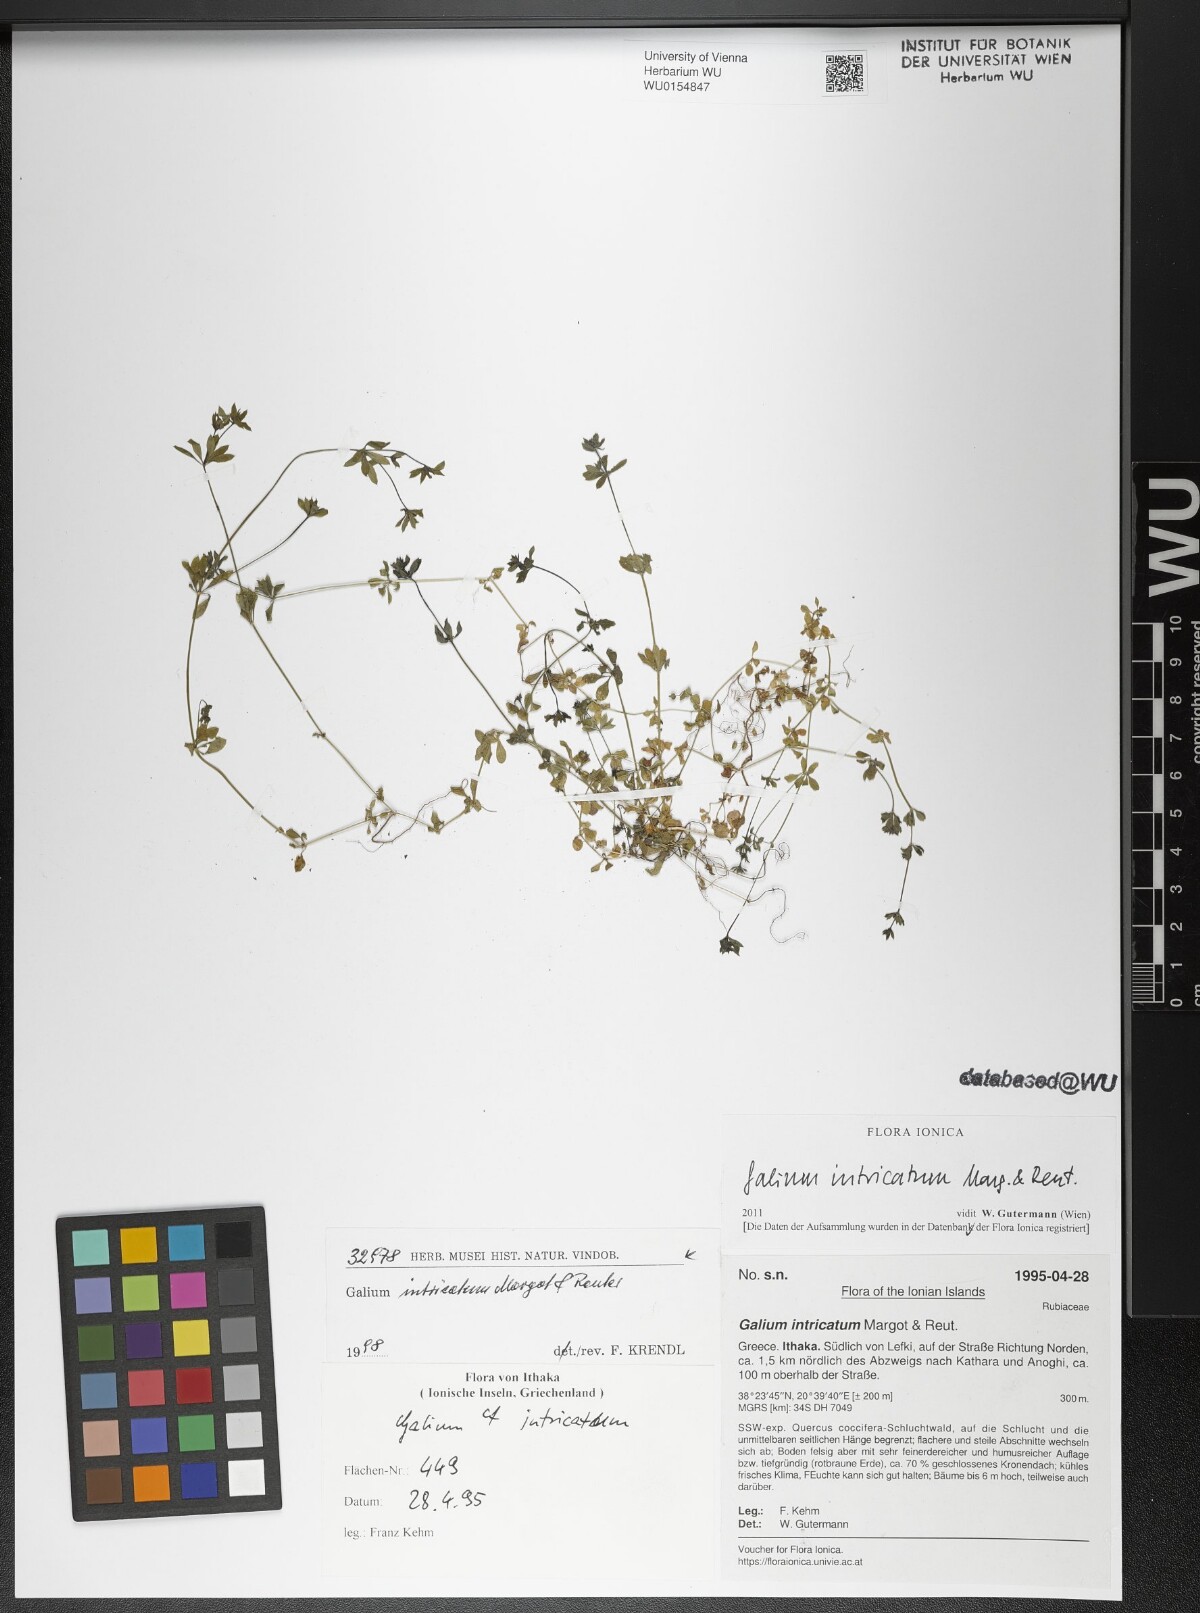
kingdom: Plantae
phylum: Tracheophyta
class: Magnoliopsida
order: Gentianales
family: Rubiaceae
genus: Galium
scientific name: Galium intricatum
